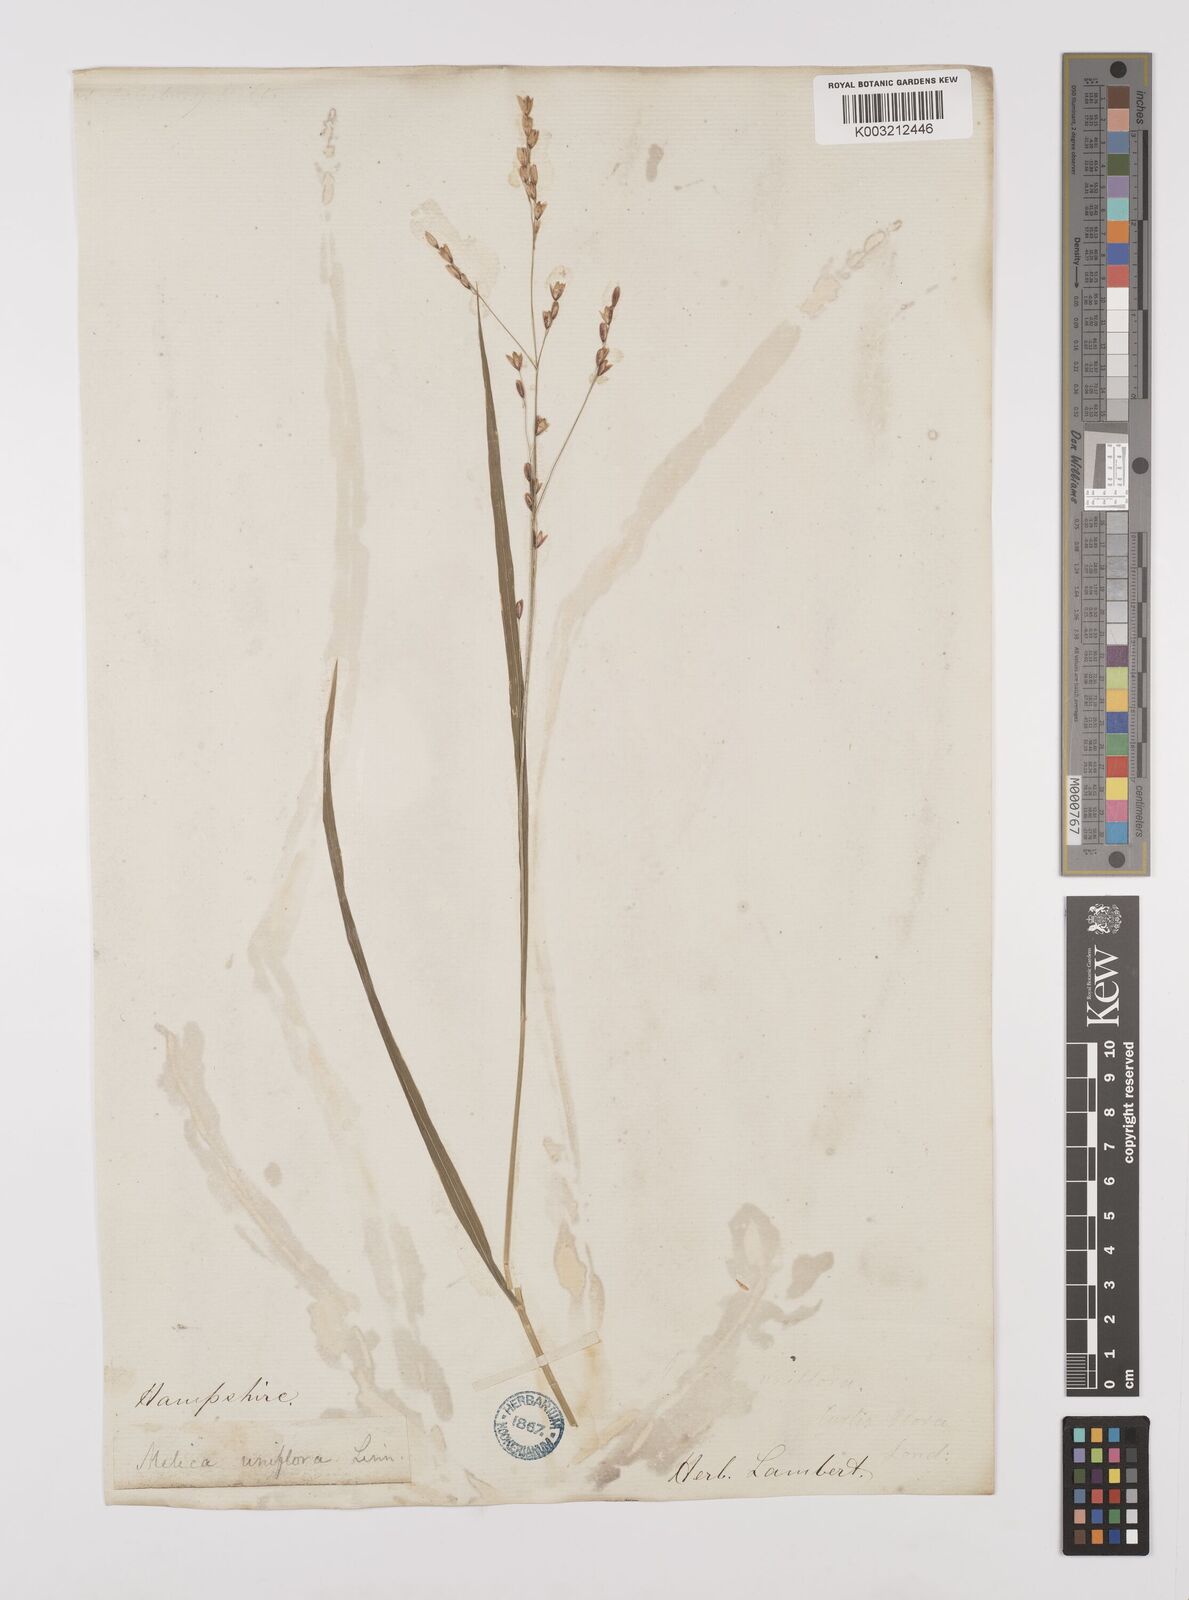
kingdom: Plantae
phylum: Tracheophyta
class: Liliopsida
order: Poales
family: Poaceae
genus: Melica
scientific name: Melica uniflora
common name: Wood melick
